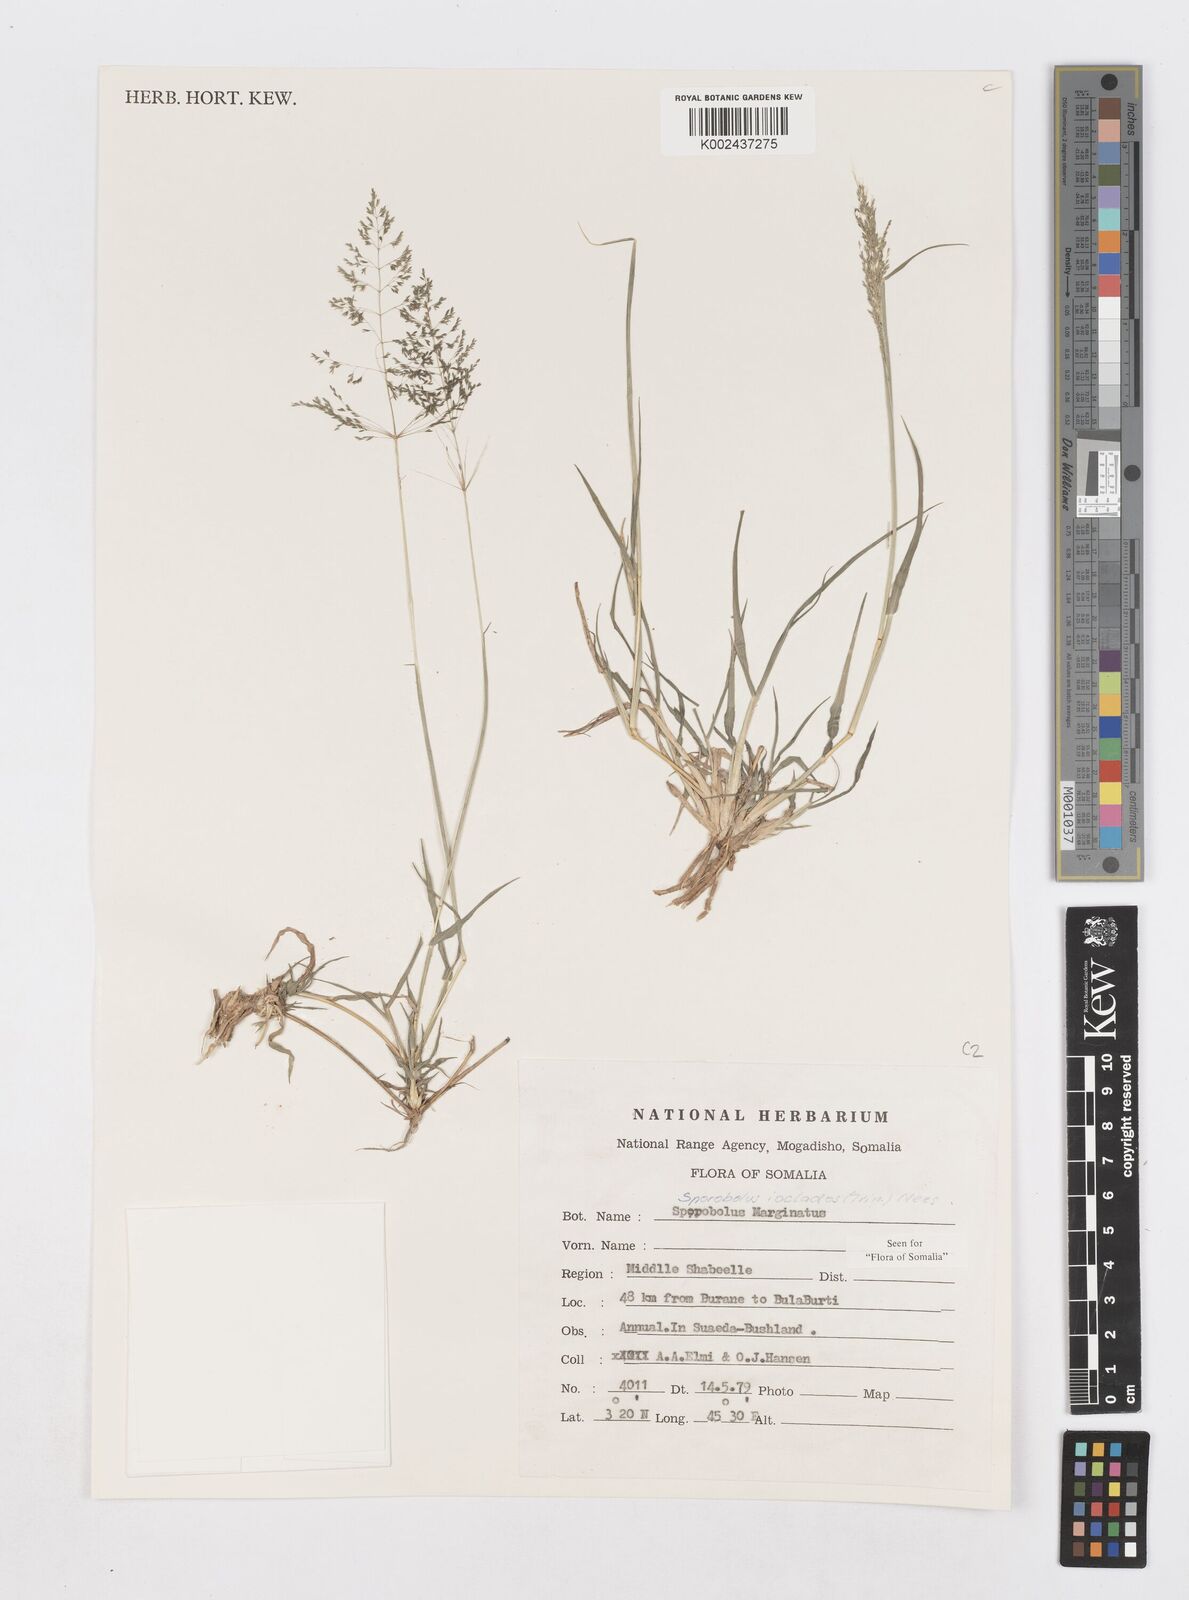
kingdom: Plantae
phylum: Tracheophyta
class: Liliopsida
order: Poales
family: Poaceae
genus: Sporobolus
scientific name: Sporobolus ioclados
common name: Pan dropseed
